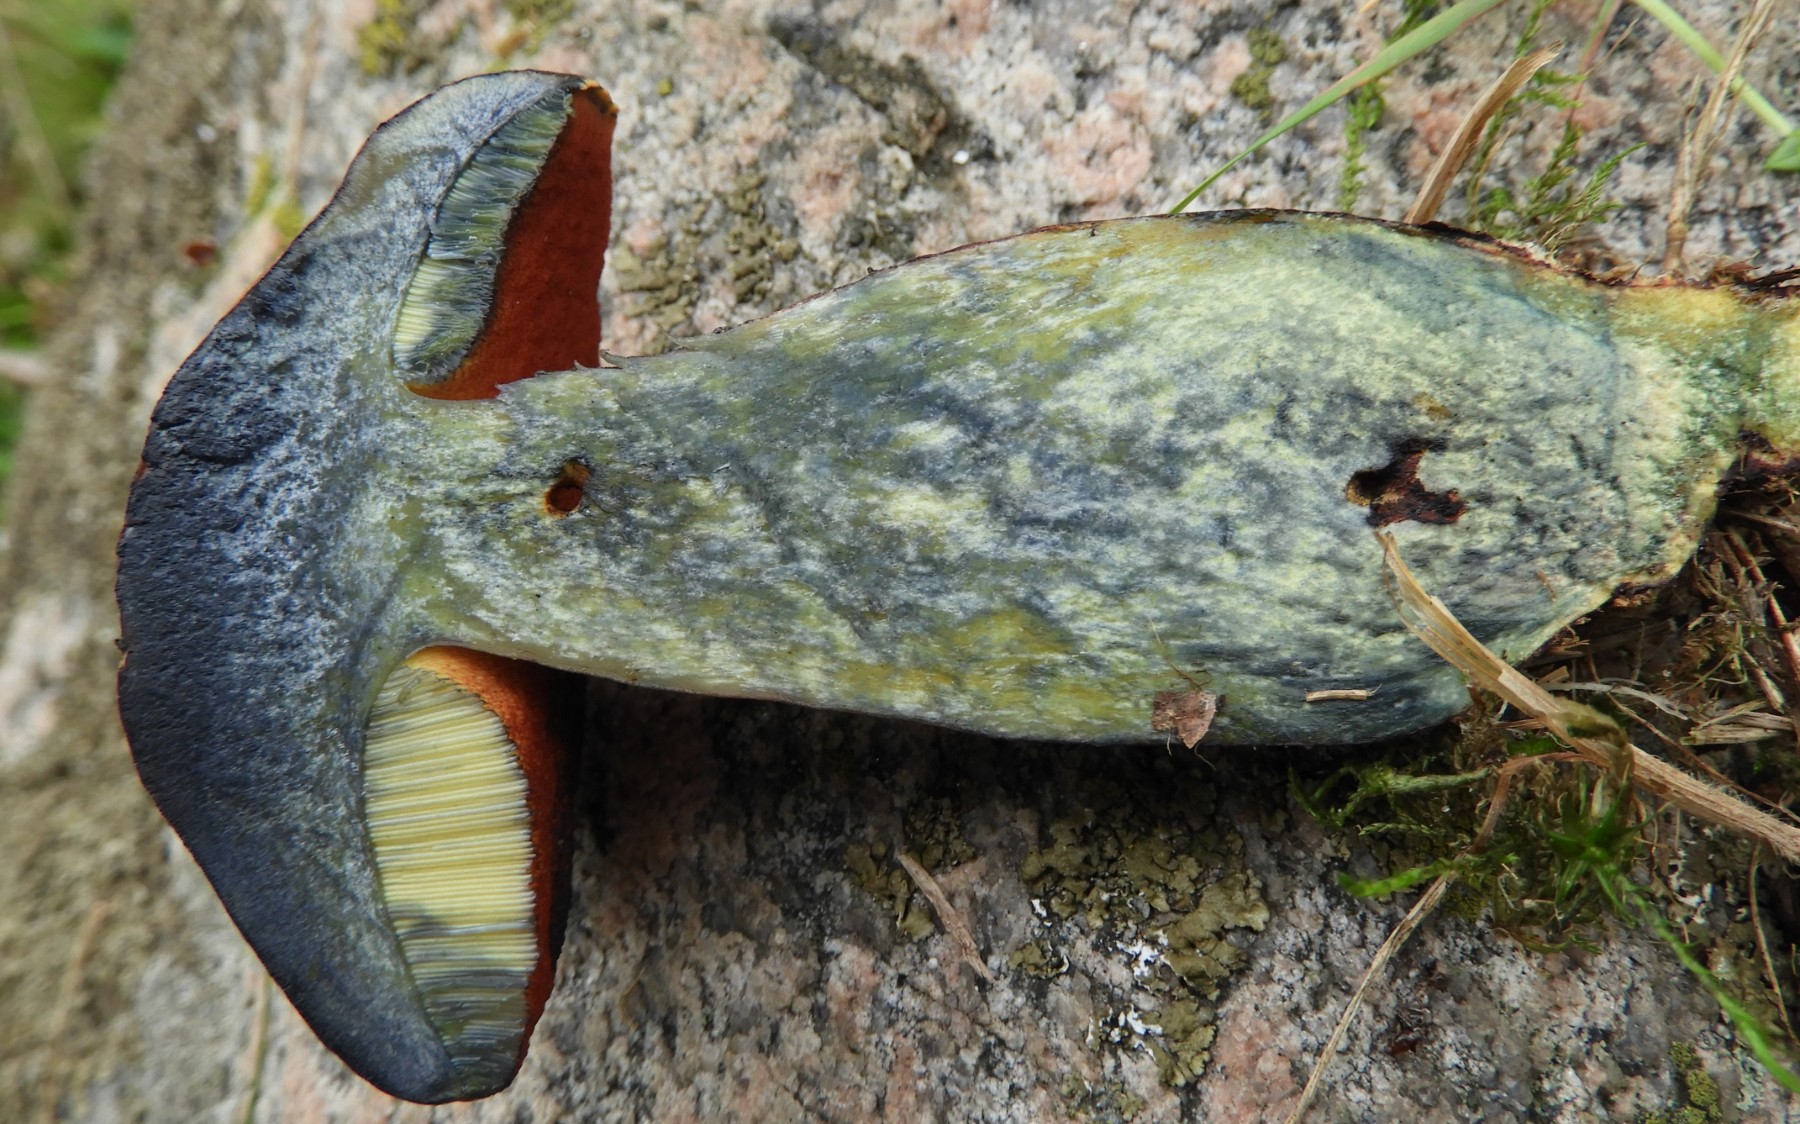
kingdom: Fungi
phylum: Basidiomycota
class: Agaricomycetes
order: Boletales
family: Boletaceae
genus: Neoboletus
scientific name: Neoboletus erythropus
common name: punktstokket indigorørhat
